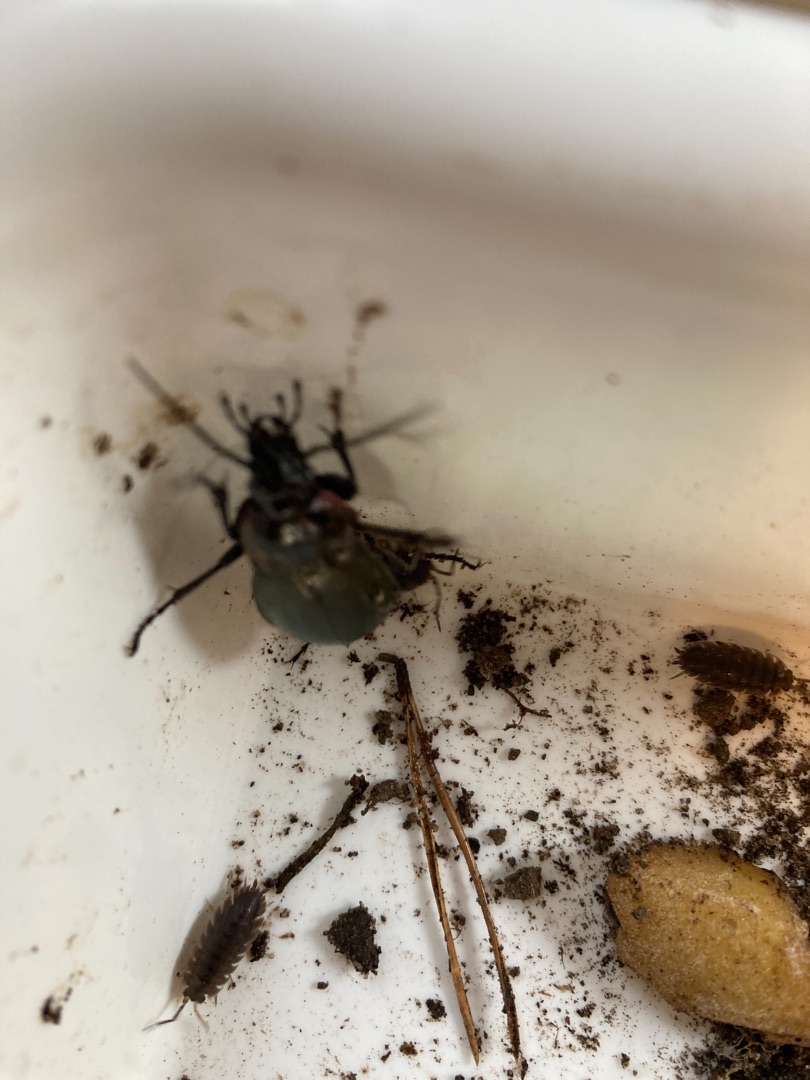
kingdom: Animalia
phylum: Arthropoda
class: Insecta
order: Coleoptera
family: Carabidae
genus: Carabus
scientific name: Carabus nemoralis
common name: Kratløber
